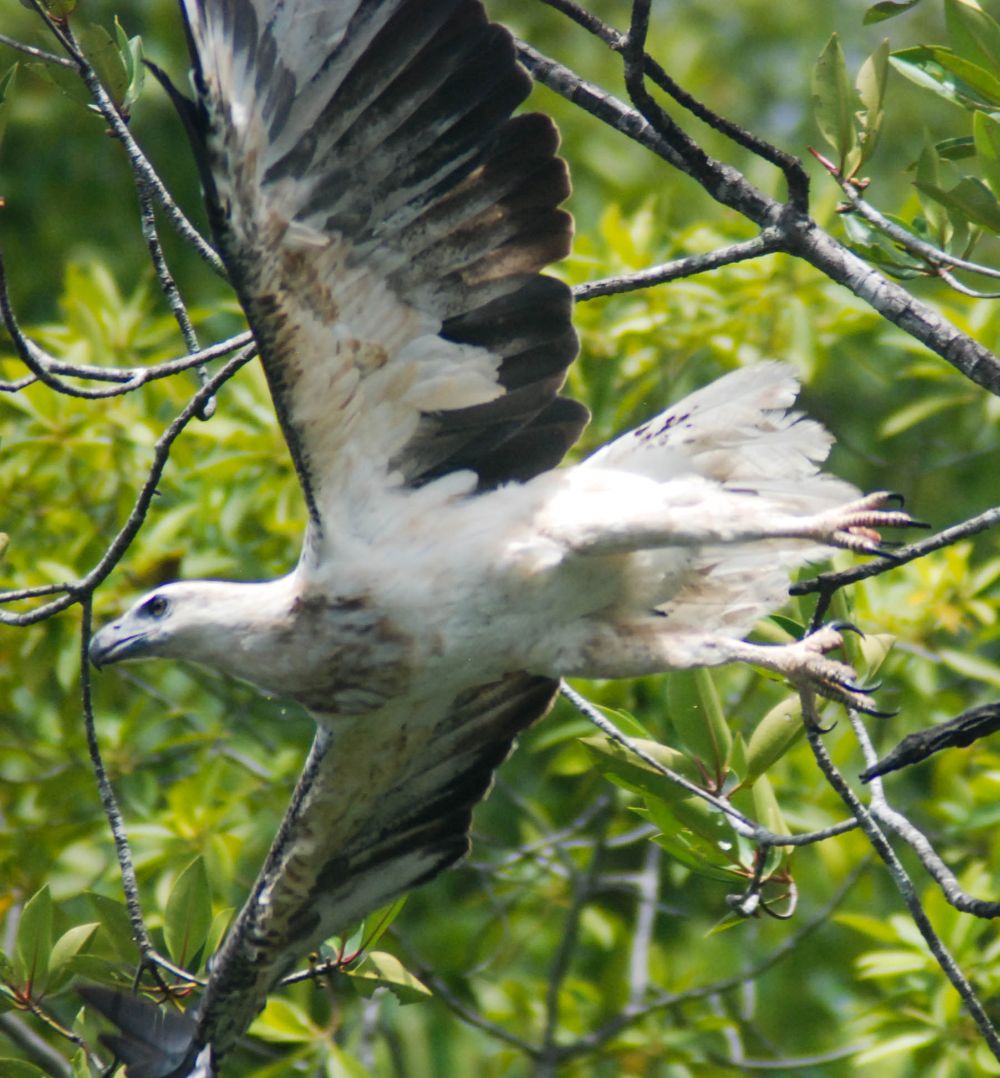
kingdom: Animalia
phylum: Chordata
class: Aves
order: Accipitriformes
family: Accipitridae
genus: Haliaeetus
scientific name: Haliaeetus leucogaster
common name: White-bellied sea eagle
